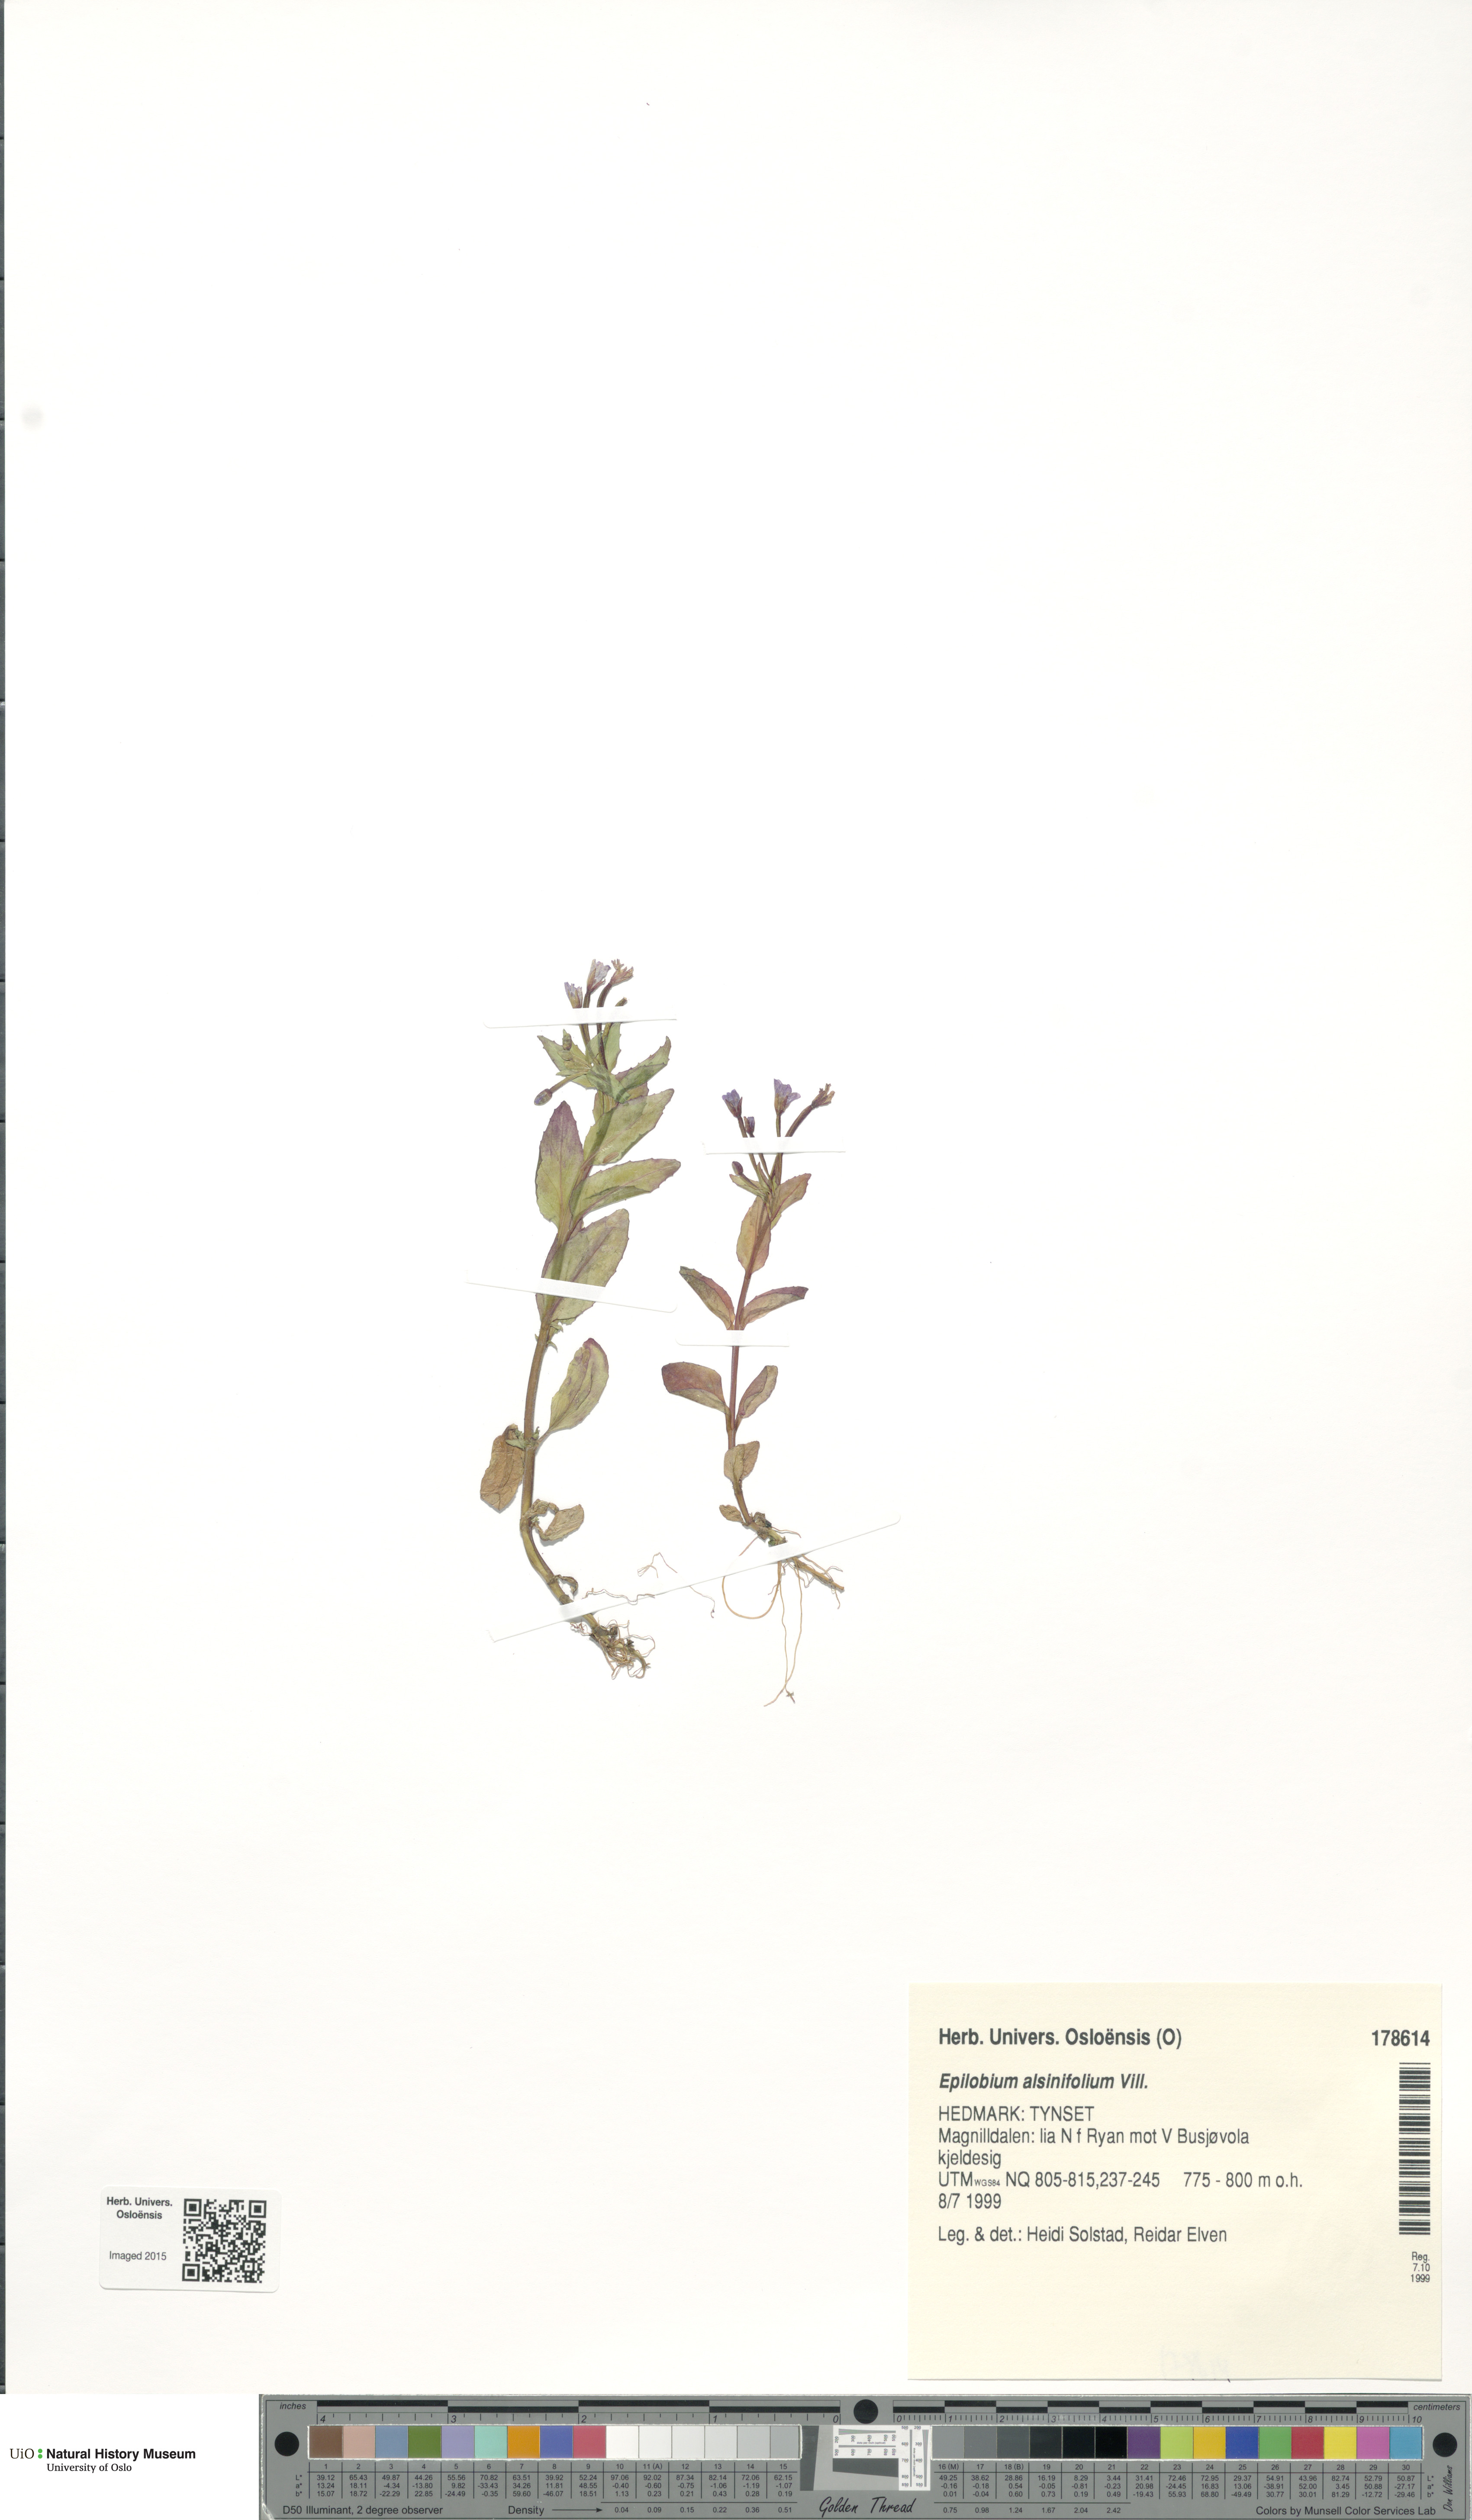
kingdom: Plantae
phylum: Tracheophyta
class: Magnoliopsida
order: Myrtales
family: Onagraceae
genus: Epilobium
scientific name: Epilobium alsinifolium
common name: Chickweed willowherb
